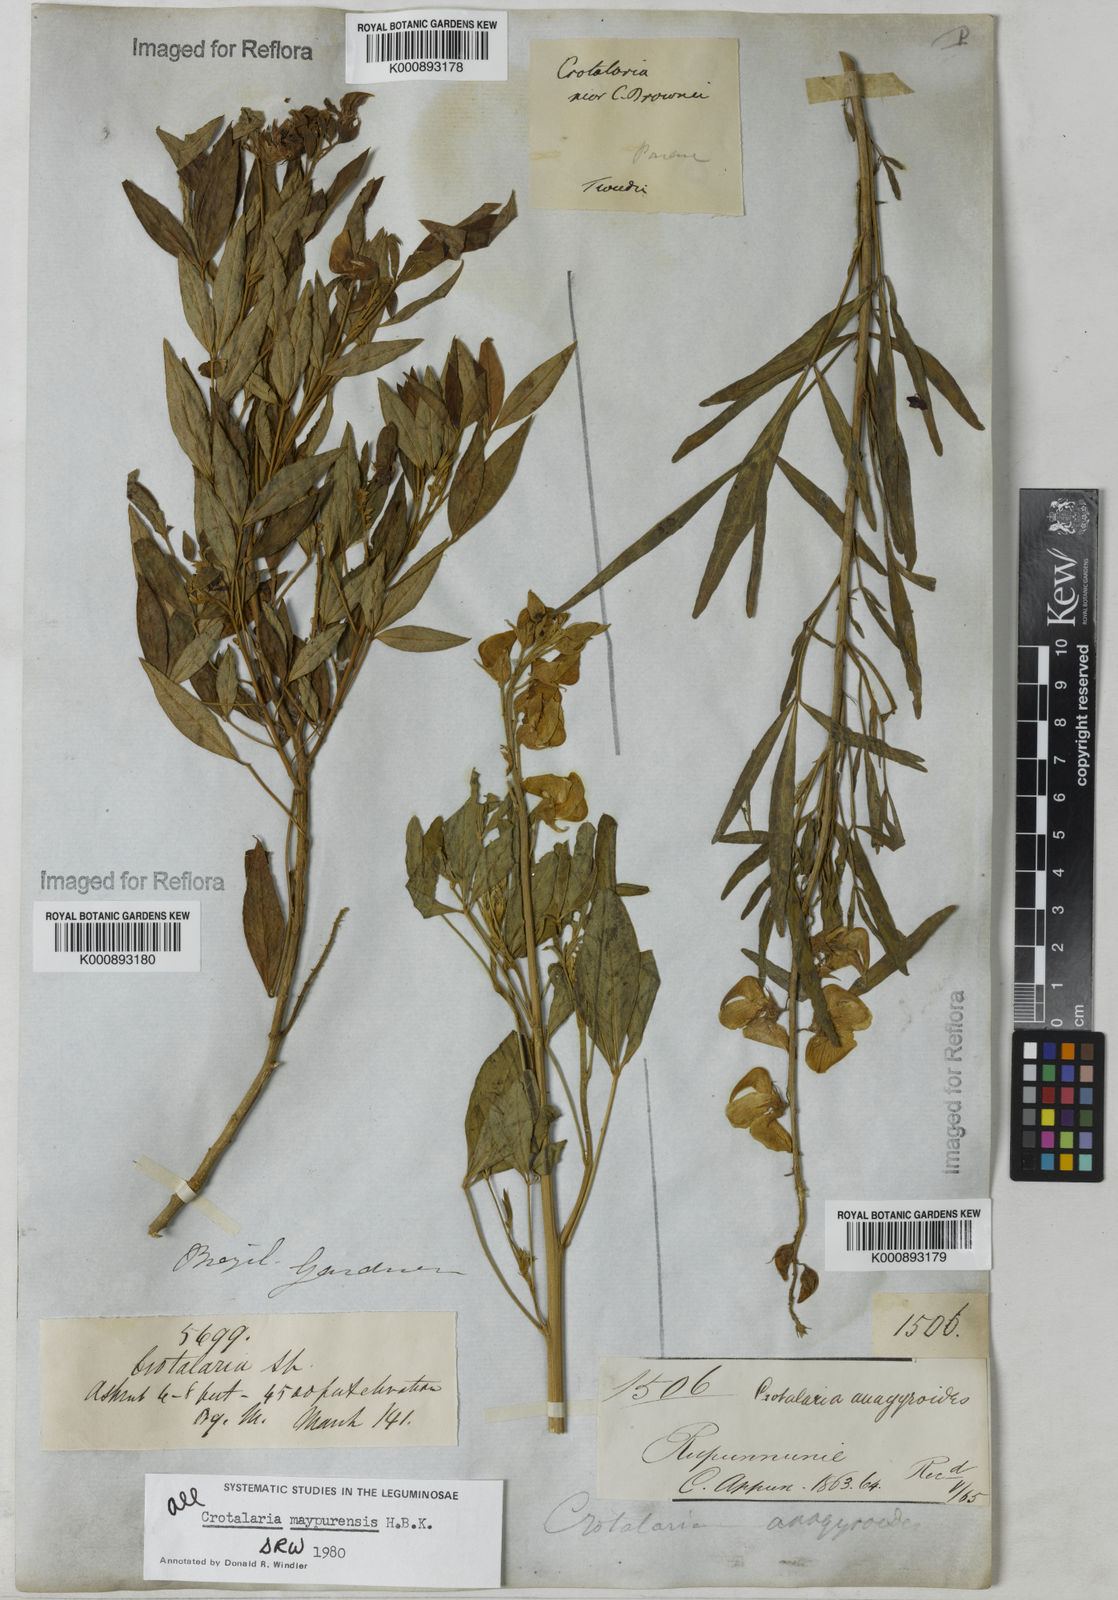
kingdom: Plantae
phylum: Tracheophyta
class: Magnoliopsida
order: Fabales
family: Fabaceae
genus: Crotalaria
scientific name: Crotalaria maypurensis
